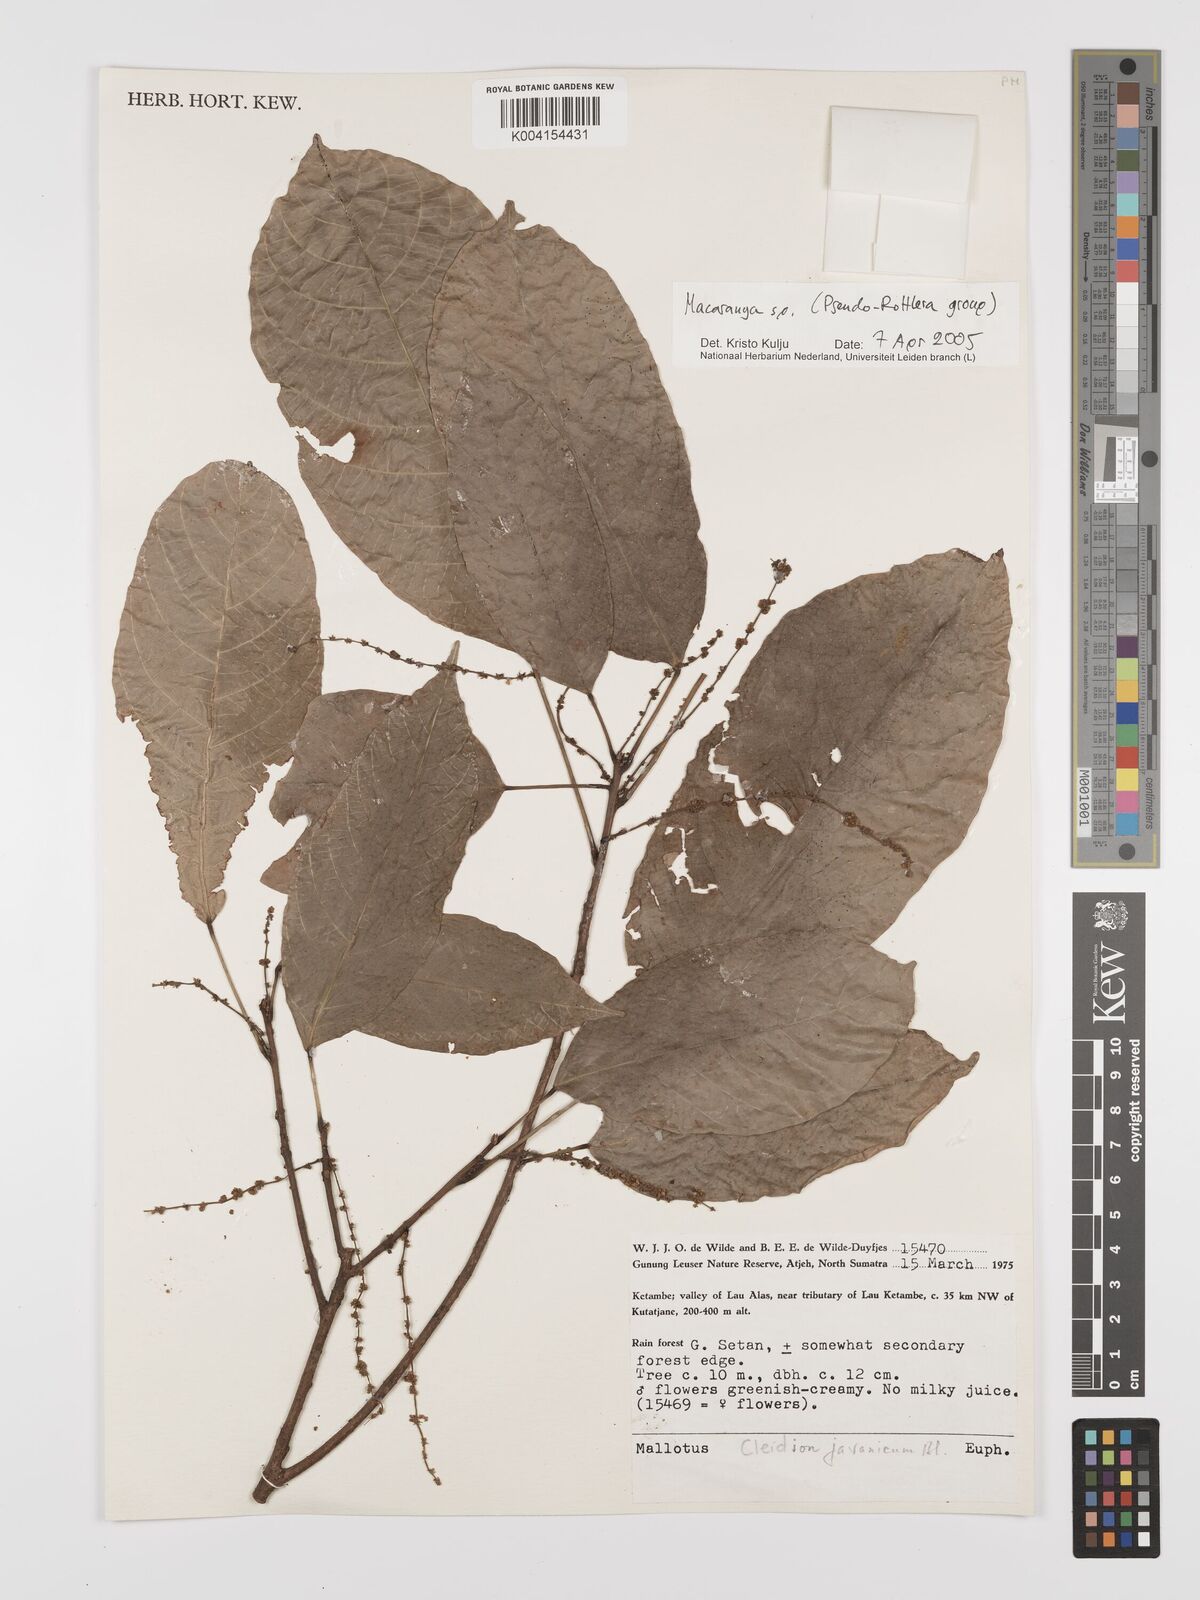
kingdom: Plantae
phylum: Tracheophyta
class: Magnoliopsida
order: Malpighiales
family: Euphorbiaceae
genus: Macaranga
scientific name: Macaranga
